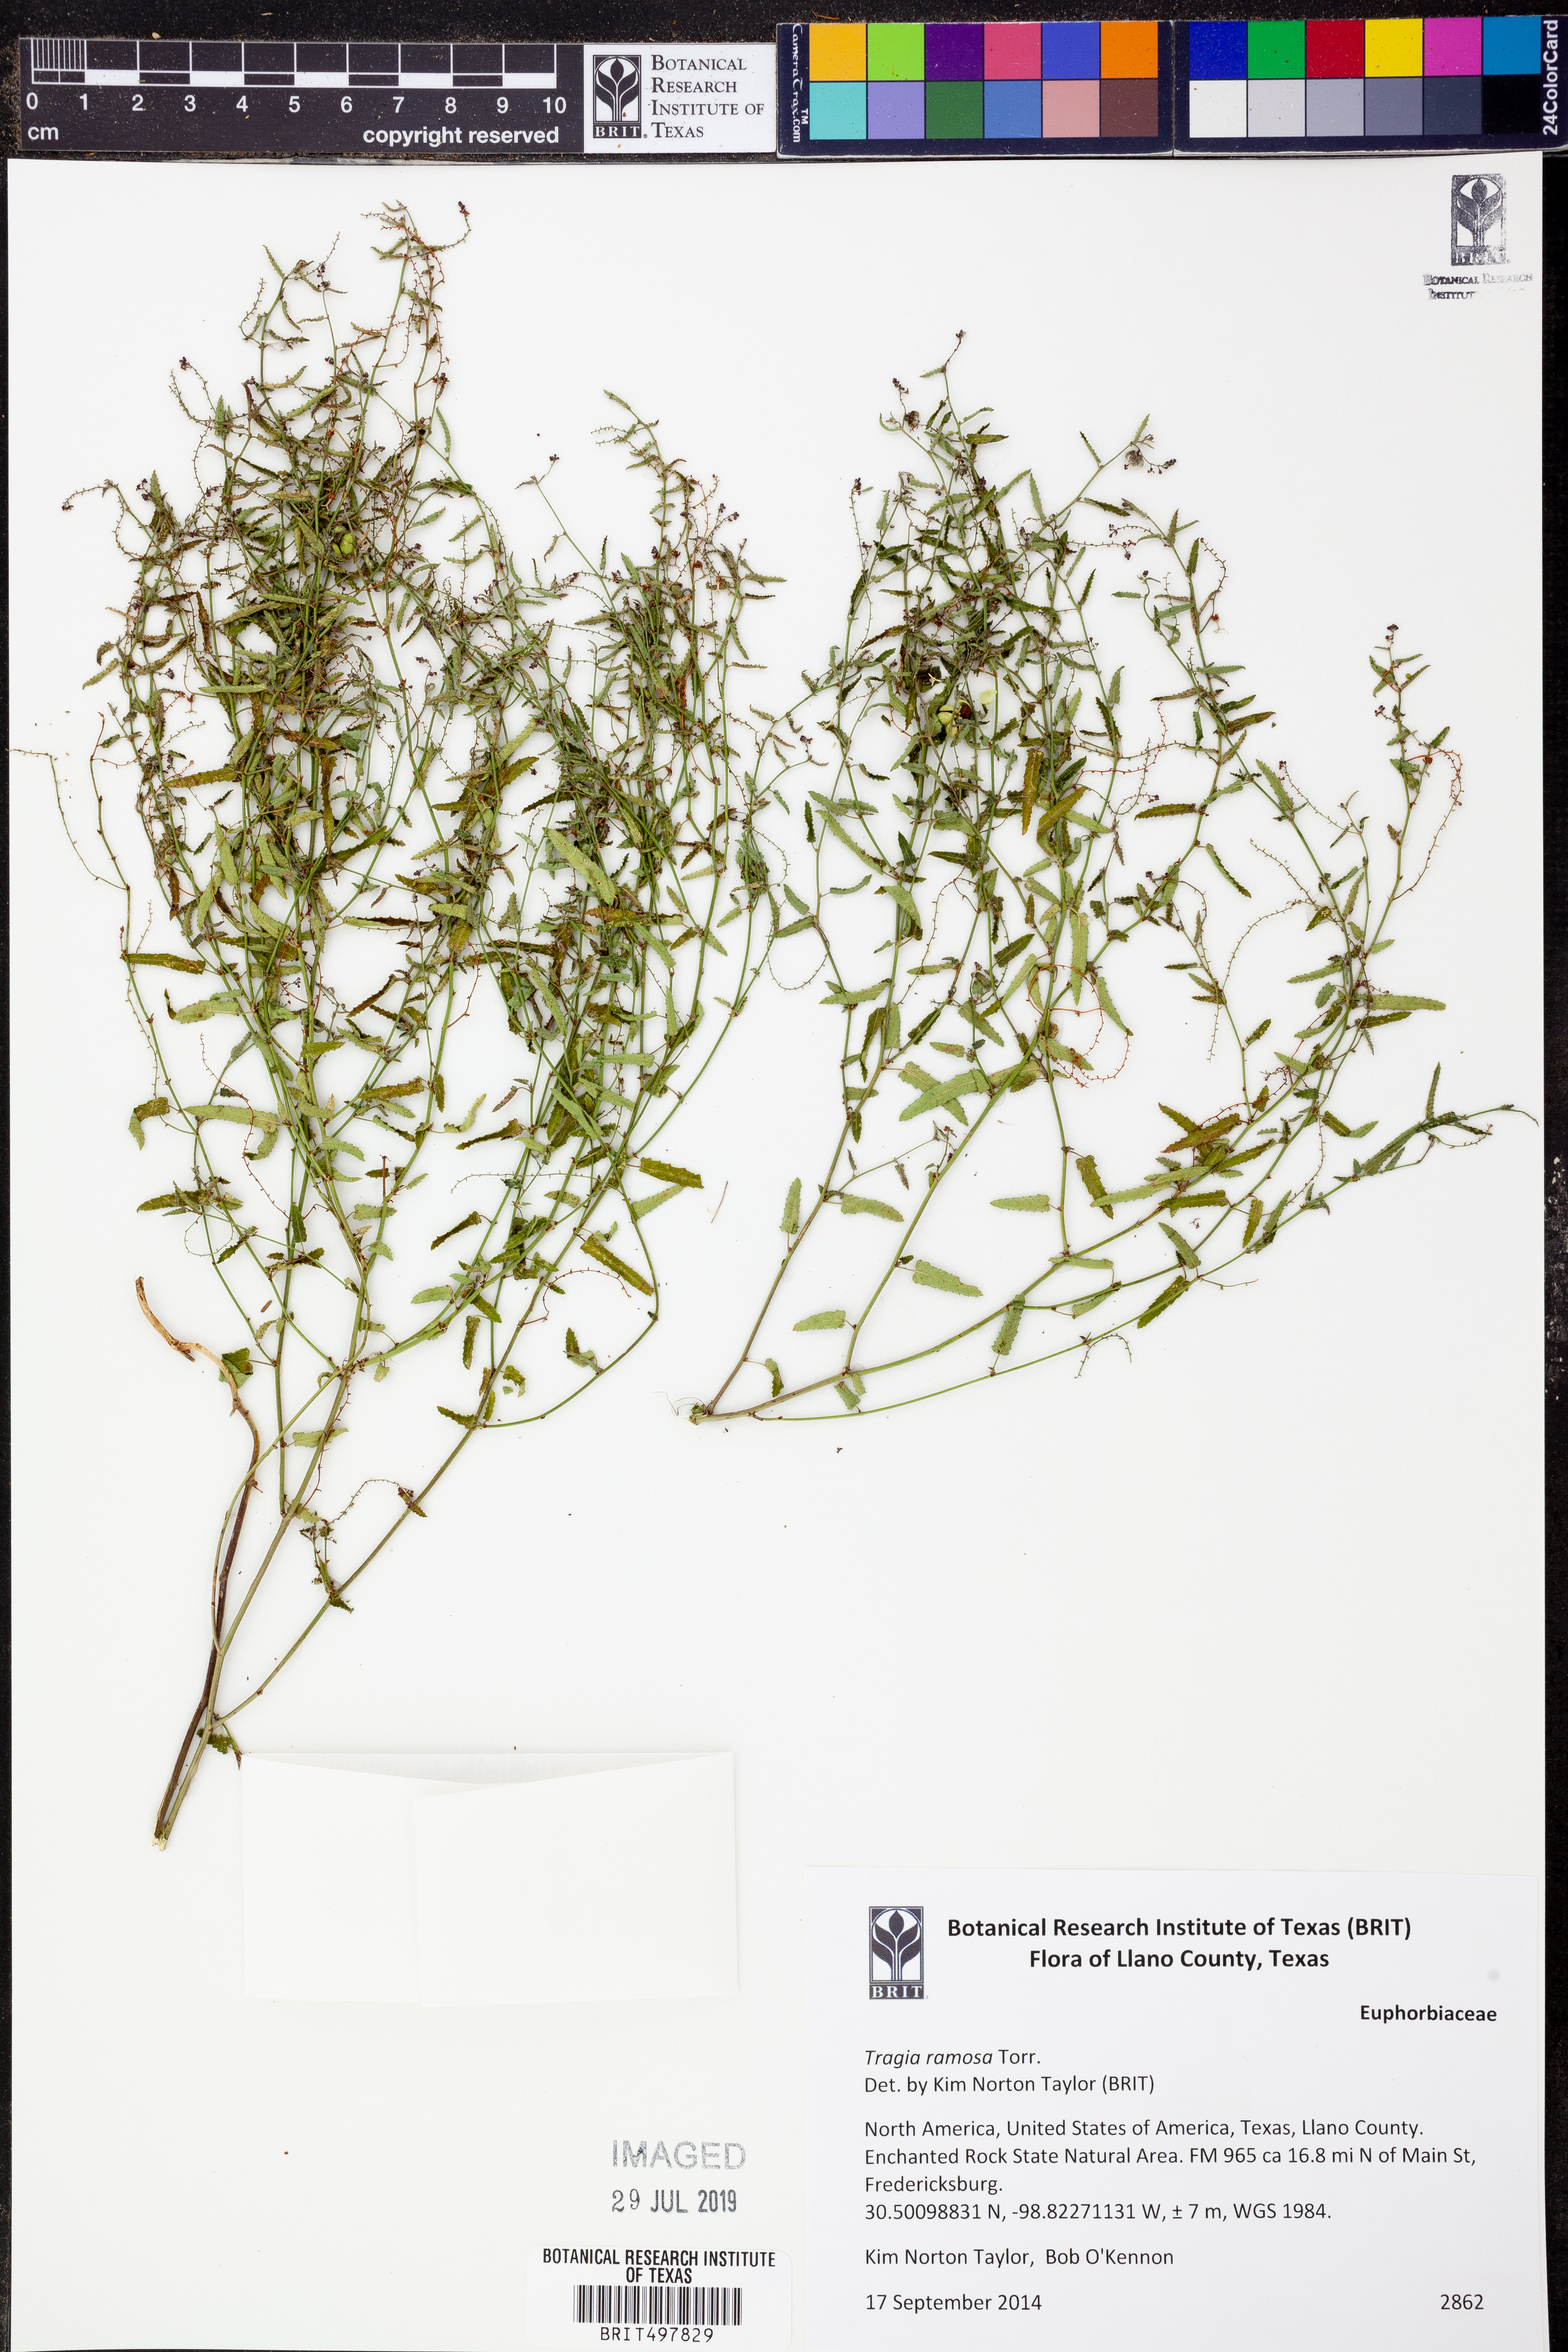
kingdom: Plantae
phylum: Tracheophyta
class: Magnoliopsida
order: Malpighiales
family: Euphorbiaceae
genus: Tragia
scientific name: Tragia ramosa
